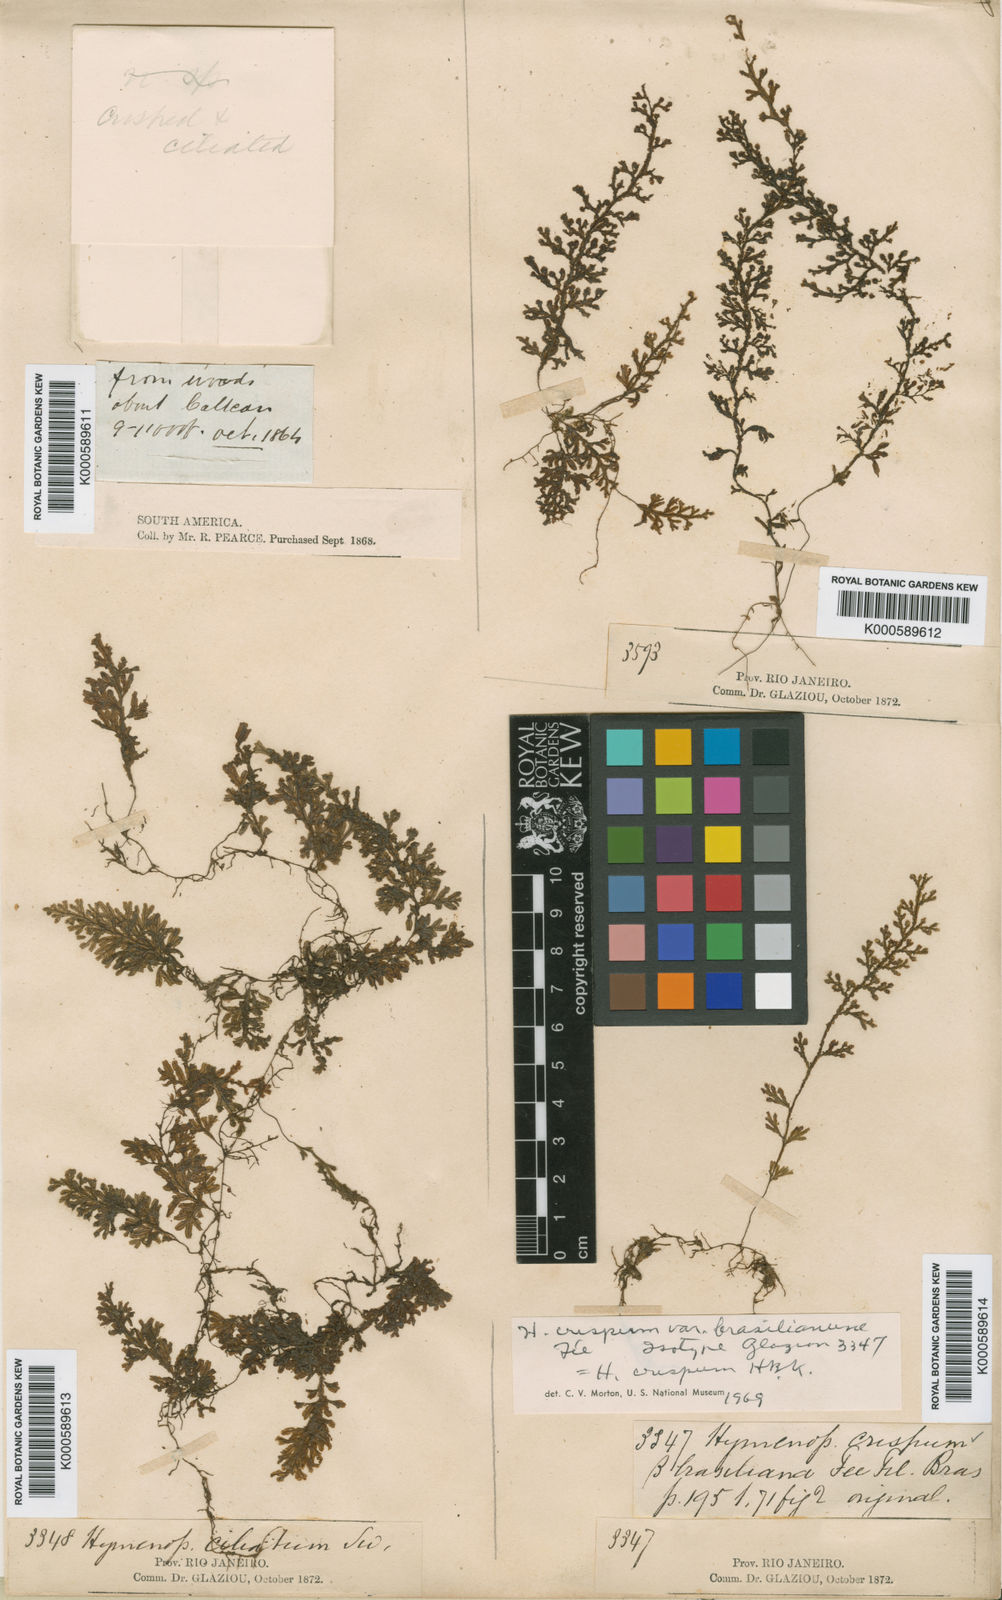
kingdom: Plantae
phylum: Tracheophyta
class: Polypodiopsida
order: Hymenophyllales
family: Hymenophyllaceae
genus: Hymenophyllum
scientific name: Hymenophyllum crispum
